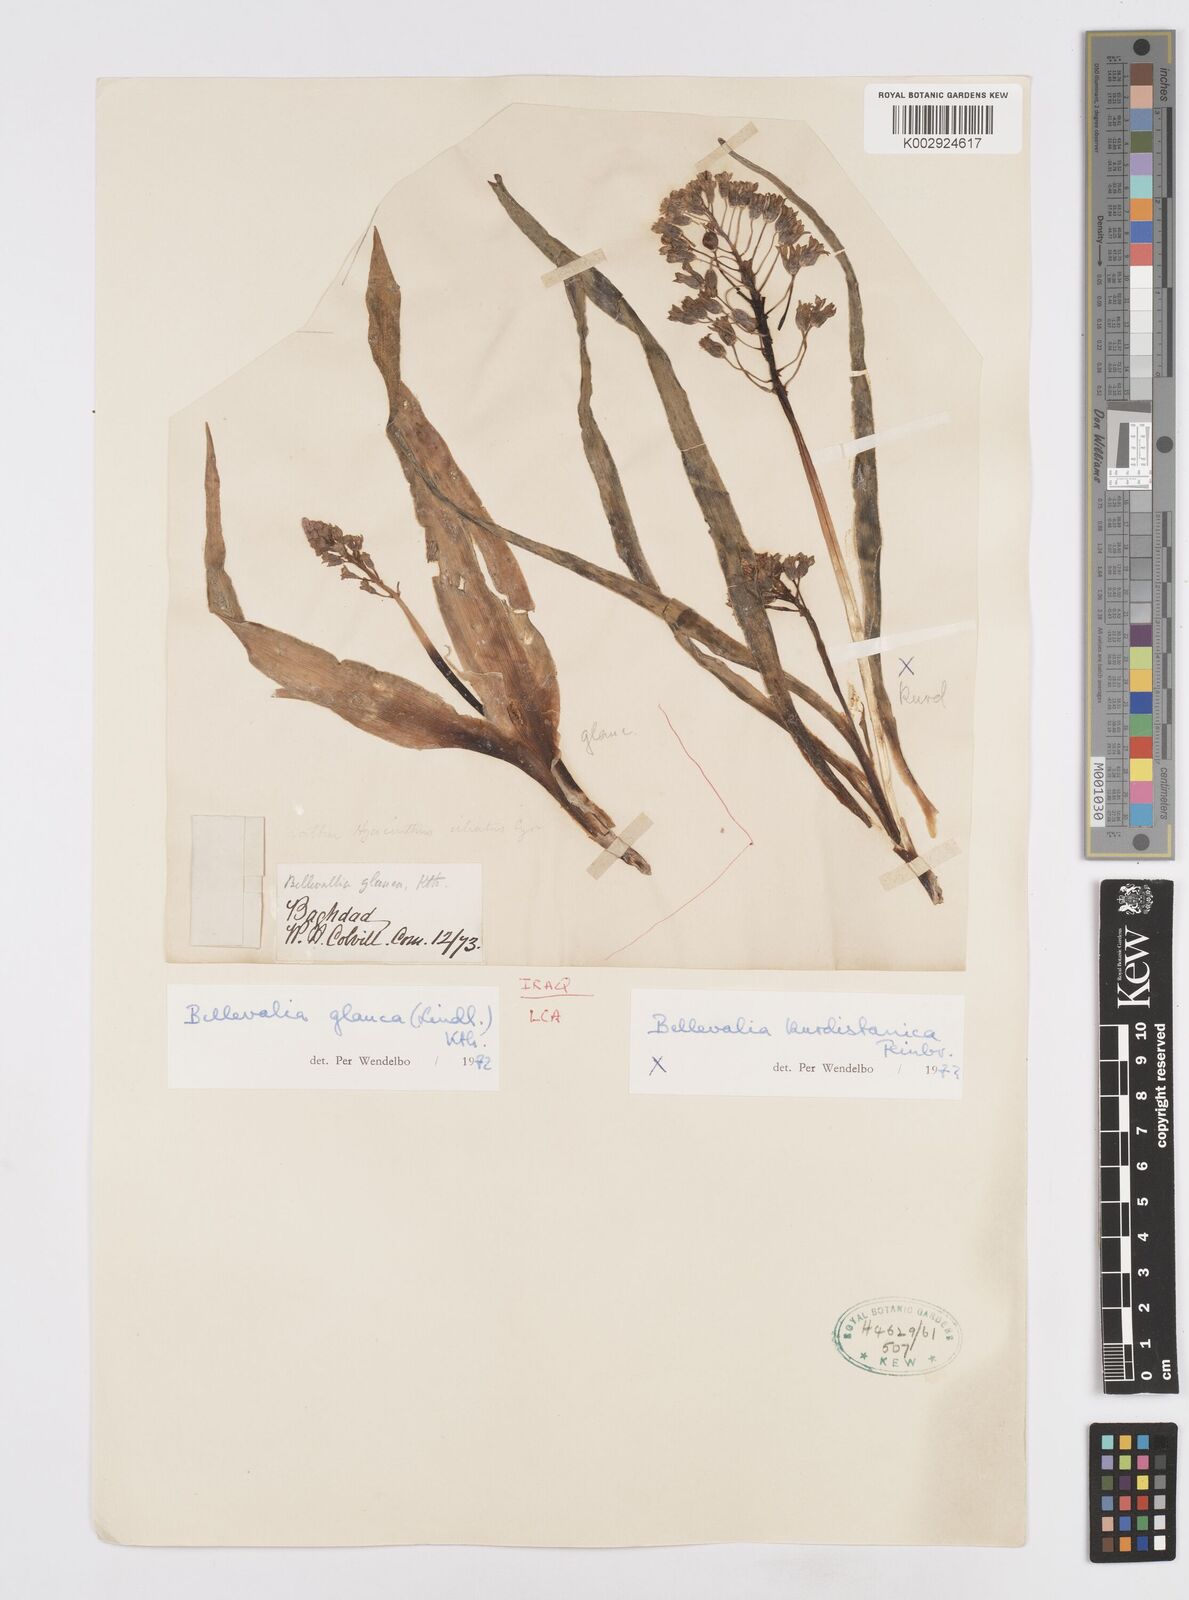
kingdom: Plantae
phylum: Tracheophyta
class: Liliopsida
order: Asparagales
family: Asparagaceae
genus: Bellevalia
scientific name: Bellevalia kurdistanica
